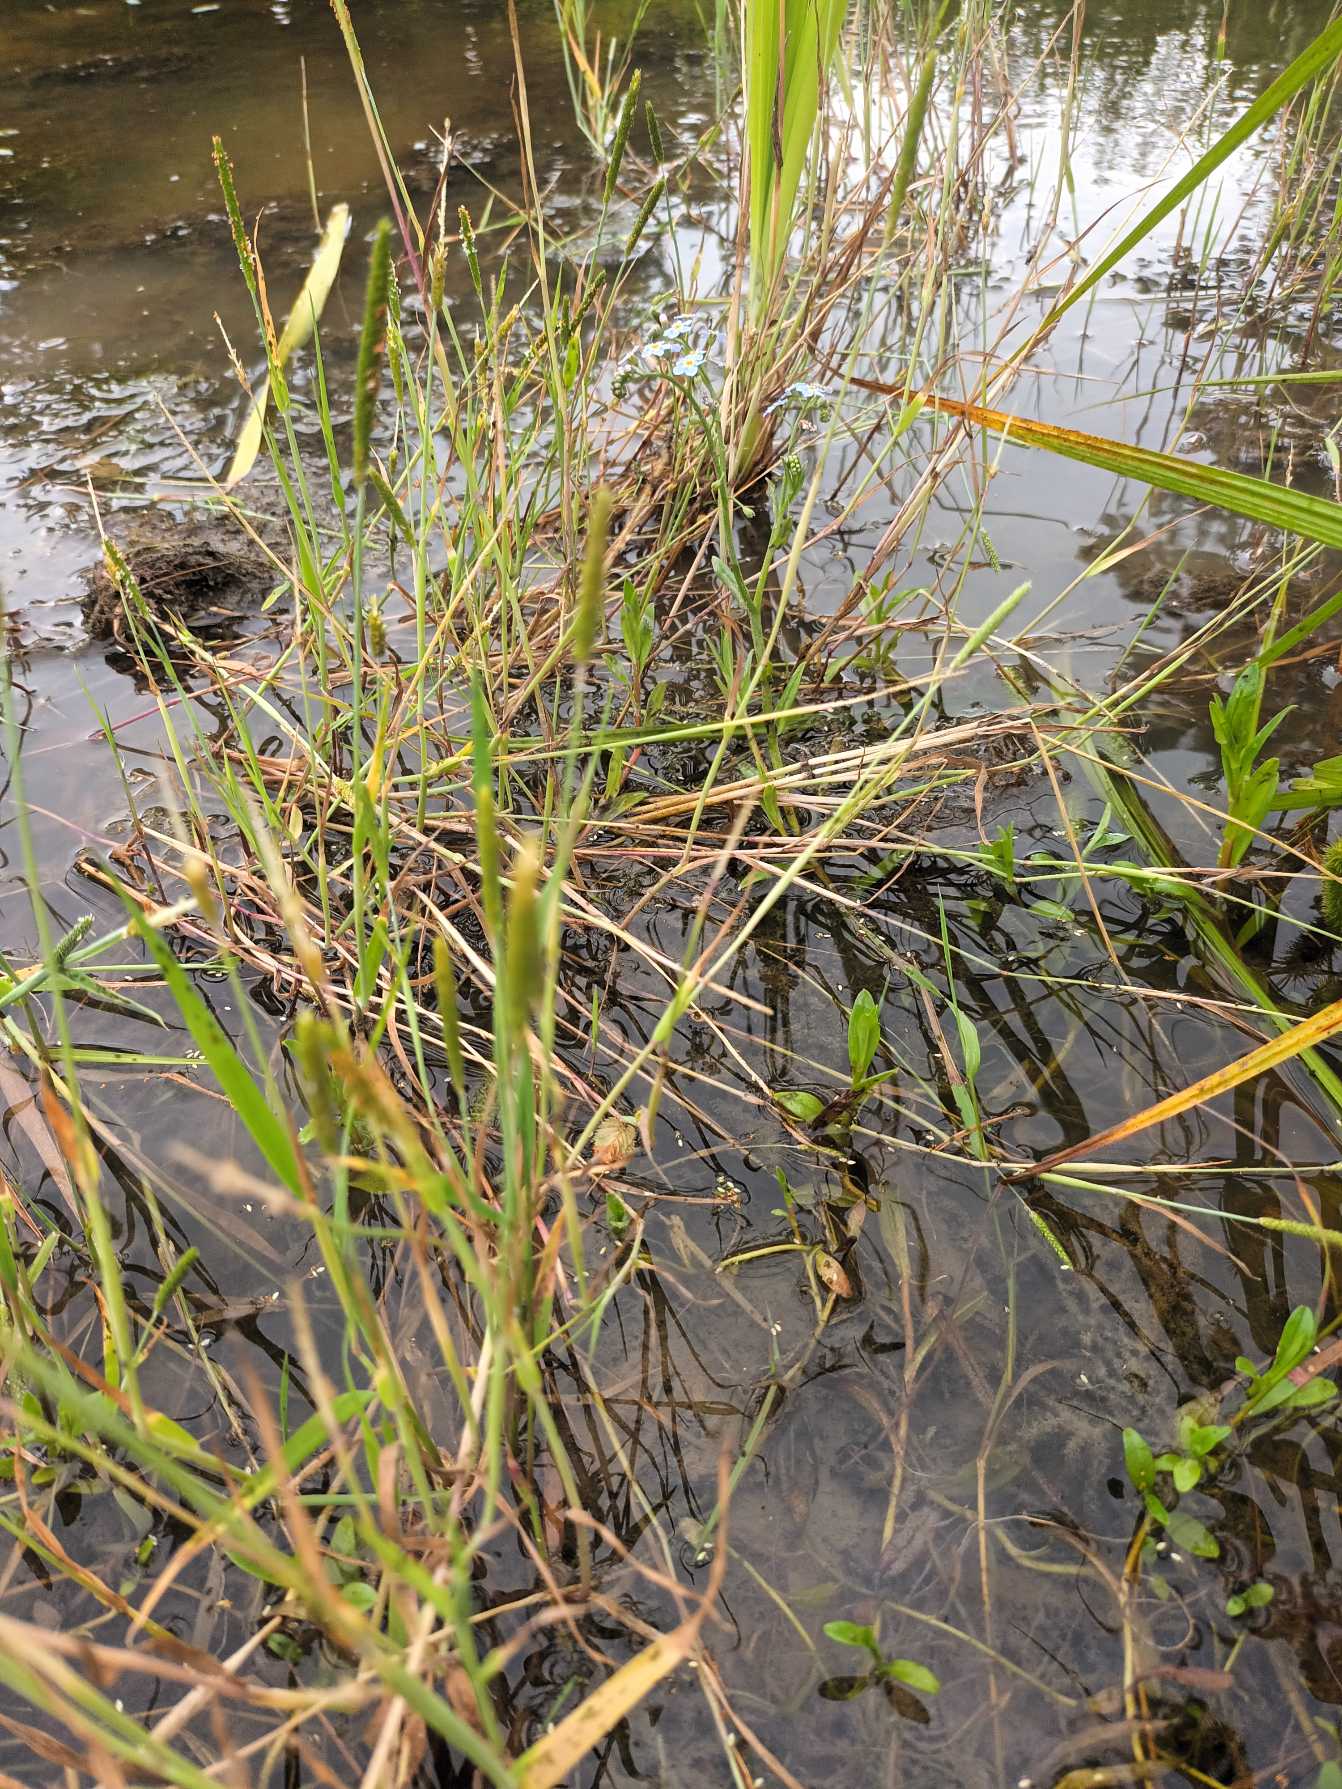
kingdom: Plantae
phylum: Tracheophyta
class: Liliopsida
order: Poales
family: Poaceae
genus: Alopecurus
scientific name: Alopecurus aequalis
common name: Gul rævehale
